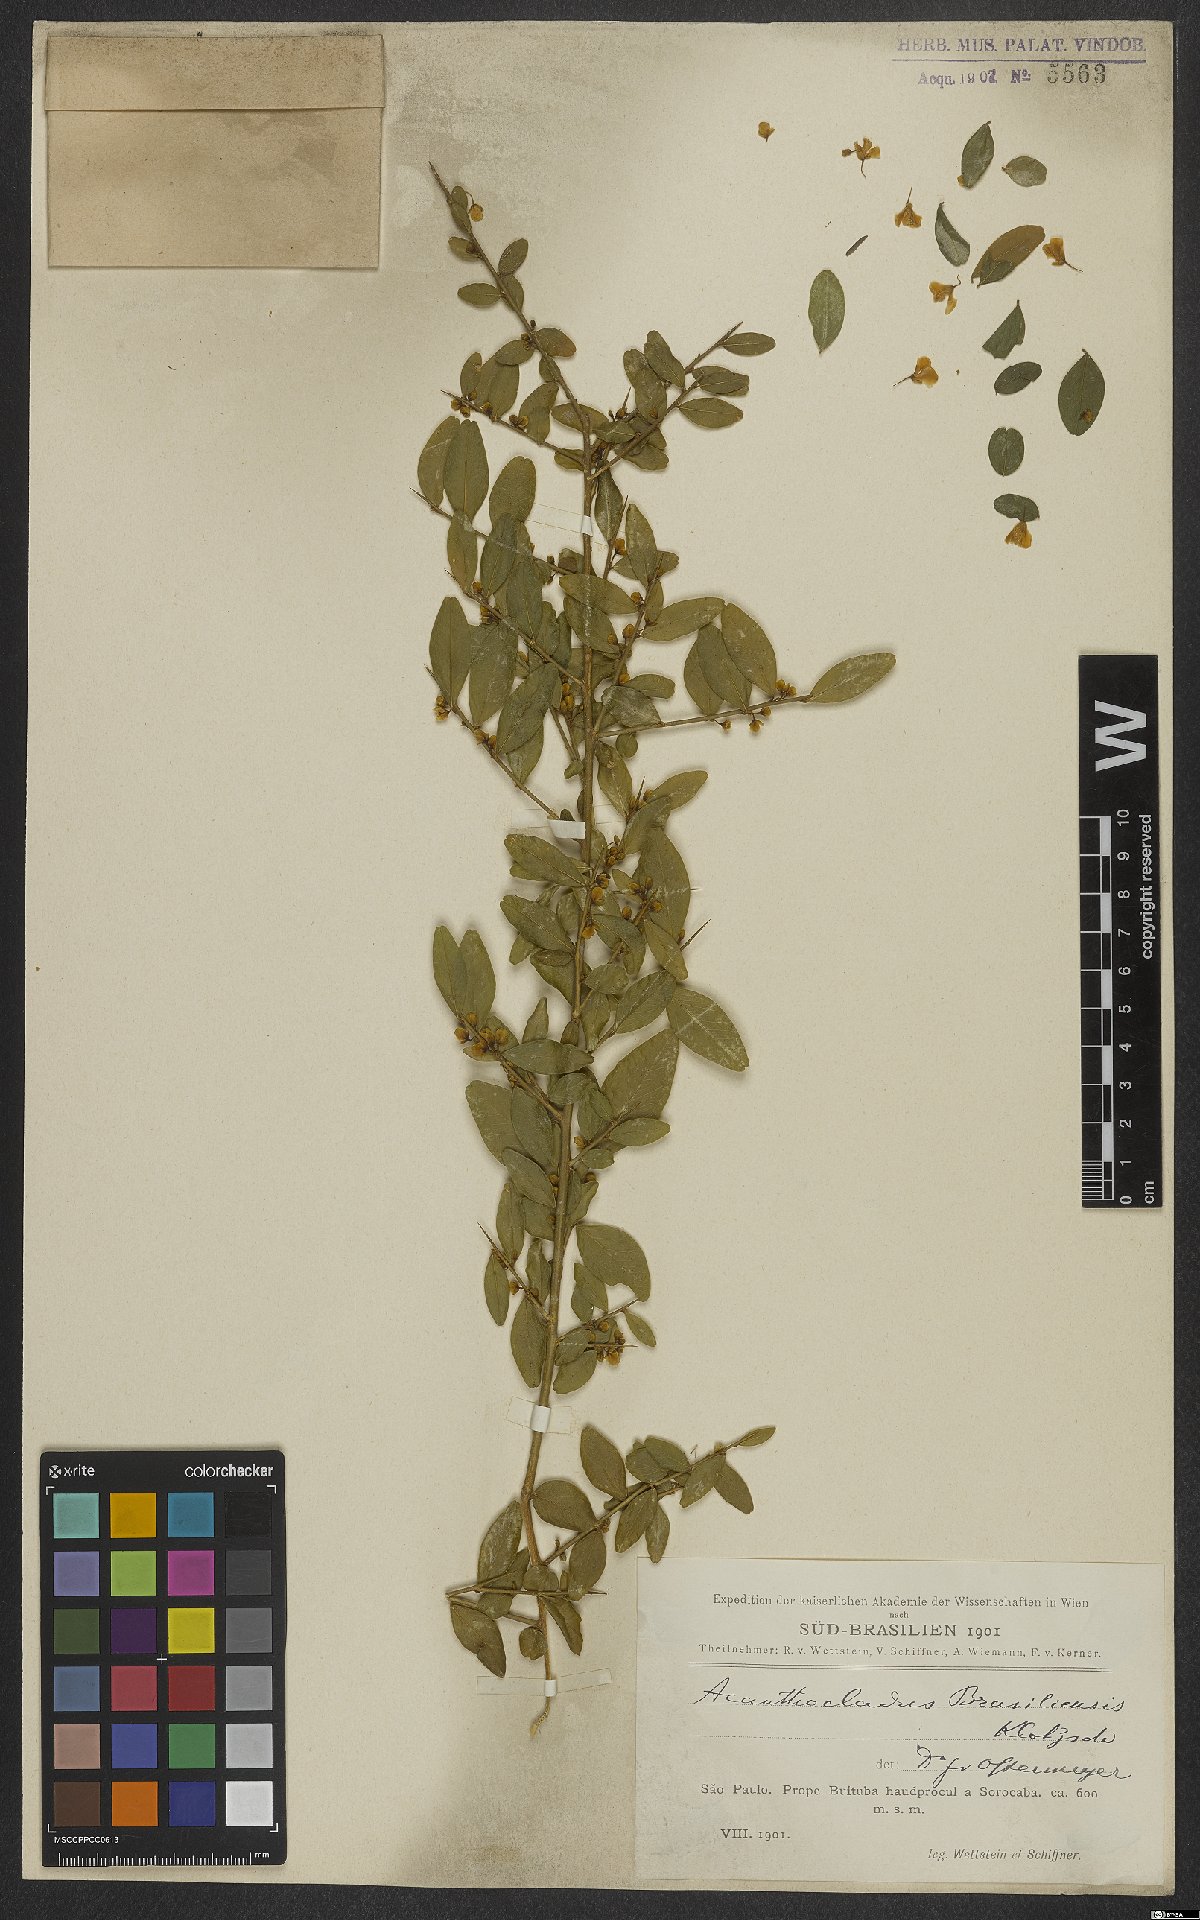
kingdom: Plantae
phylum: Tracheophyta
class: Magnoliopsida
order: Fabales
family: Polygalaceae
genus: Acanthocladus
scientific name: Acanthocladus brasiliensis
